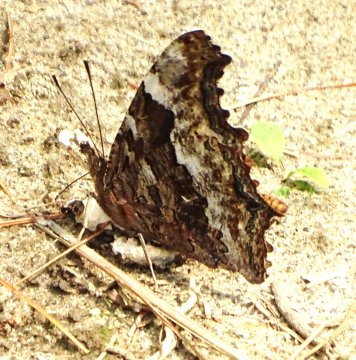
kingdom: Animalia
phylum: Arthropoda
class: Insecta
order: Lepidoptera
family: Nymphalidae
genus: Polygonia
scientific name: Polygonia vaualbum
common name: Compton Tortoiseshell
